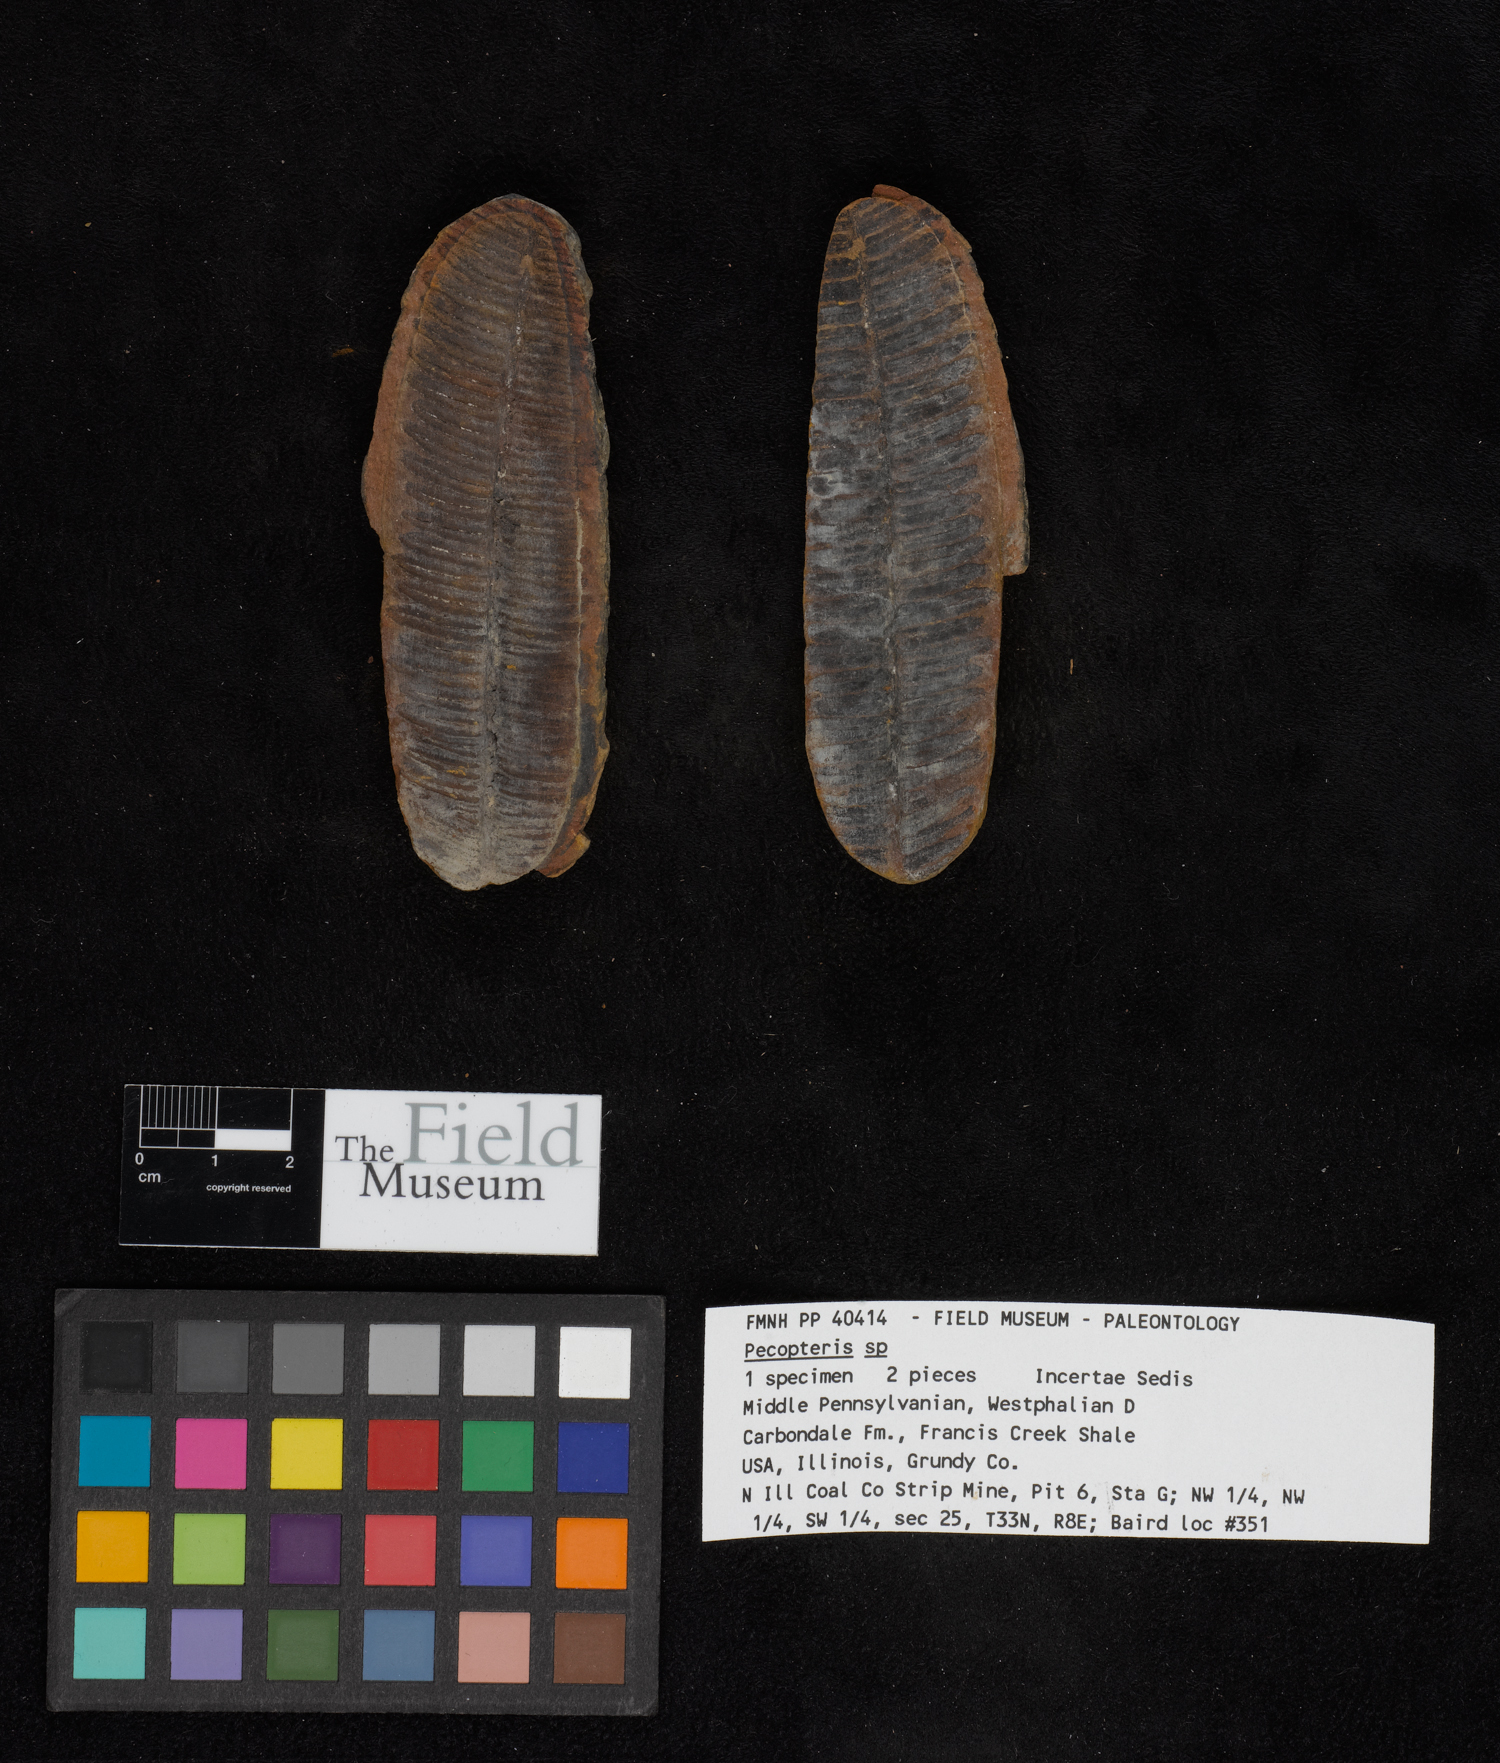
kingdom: Plantae
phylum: Tracheophyta
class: Polypodiopsida
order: Marattiales
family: Asterothecaceae
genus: Pecopteris
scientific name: Pecopteris
